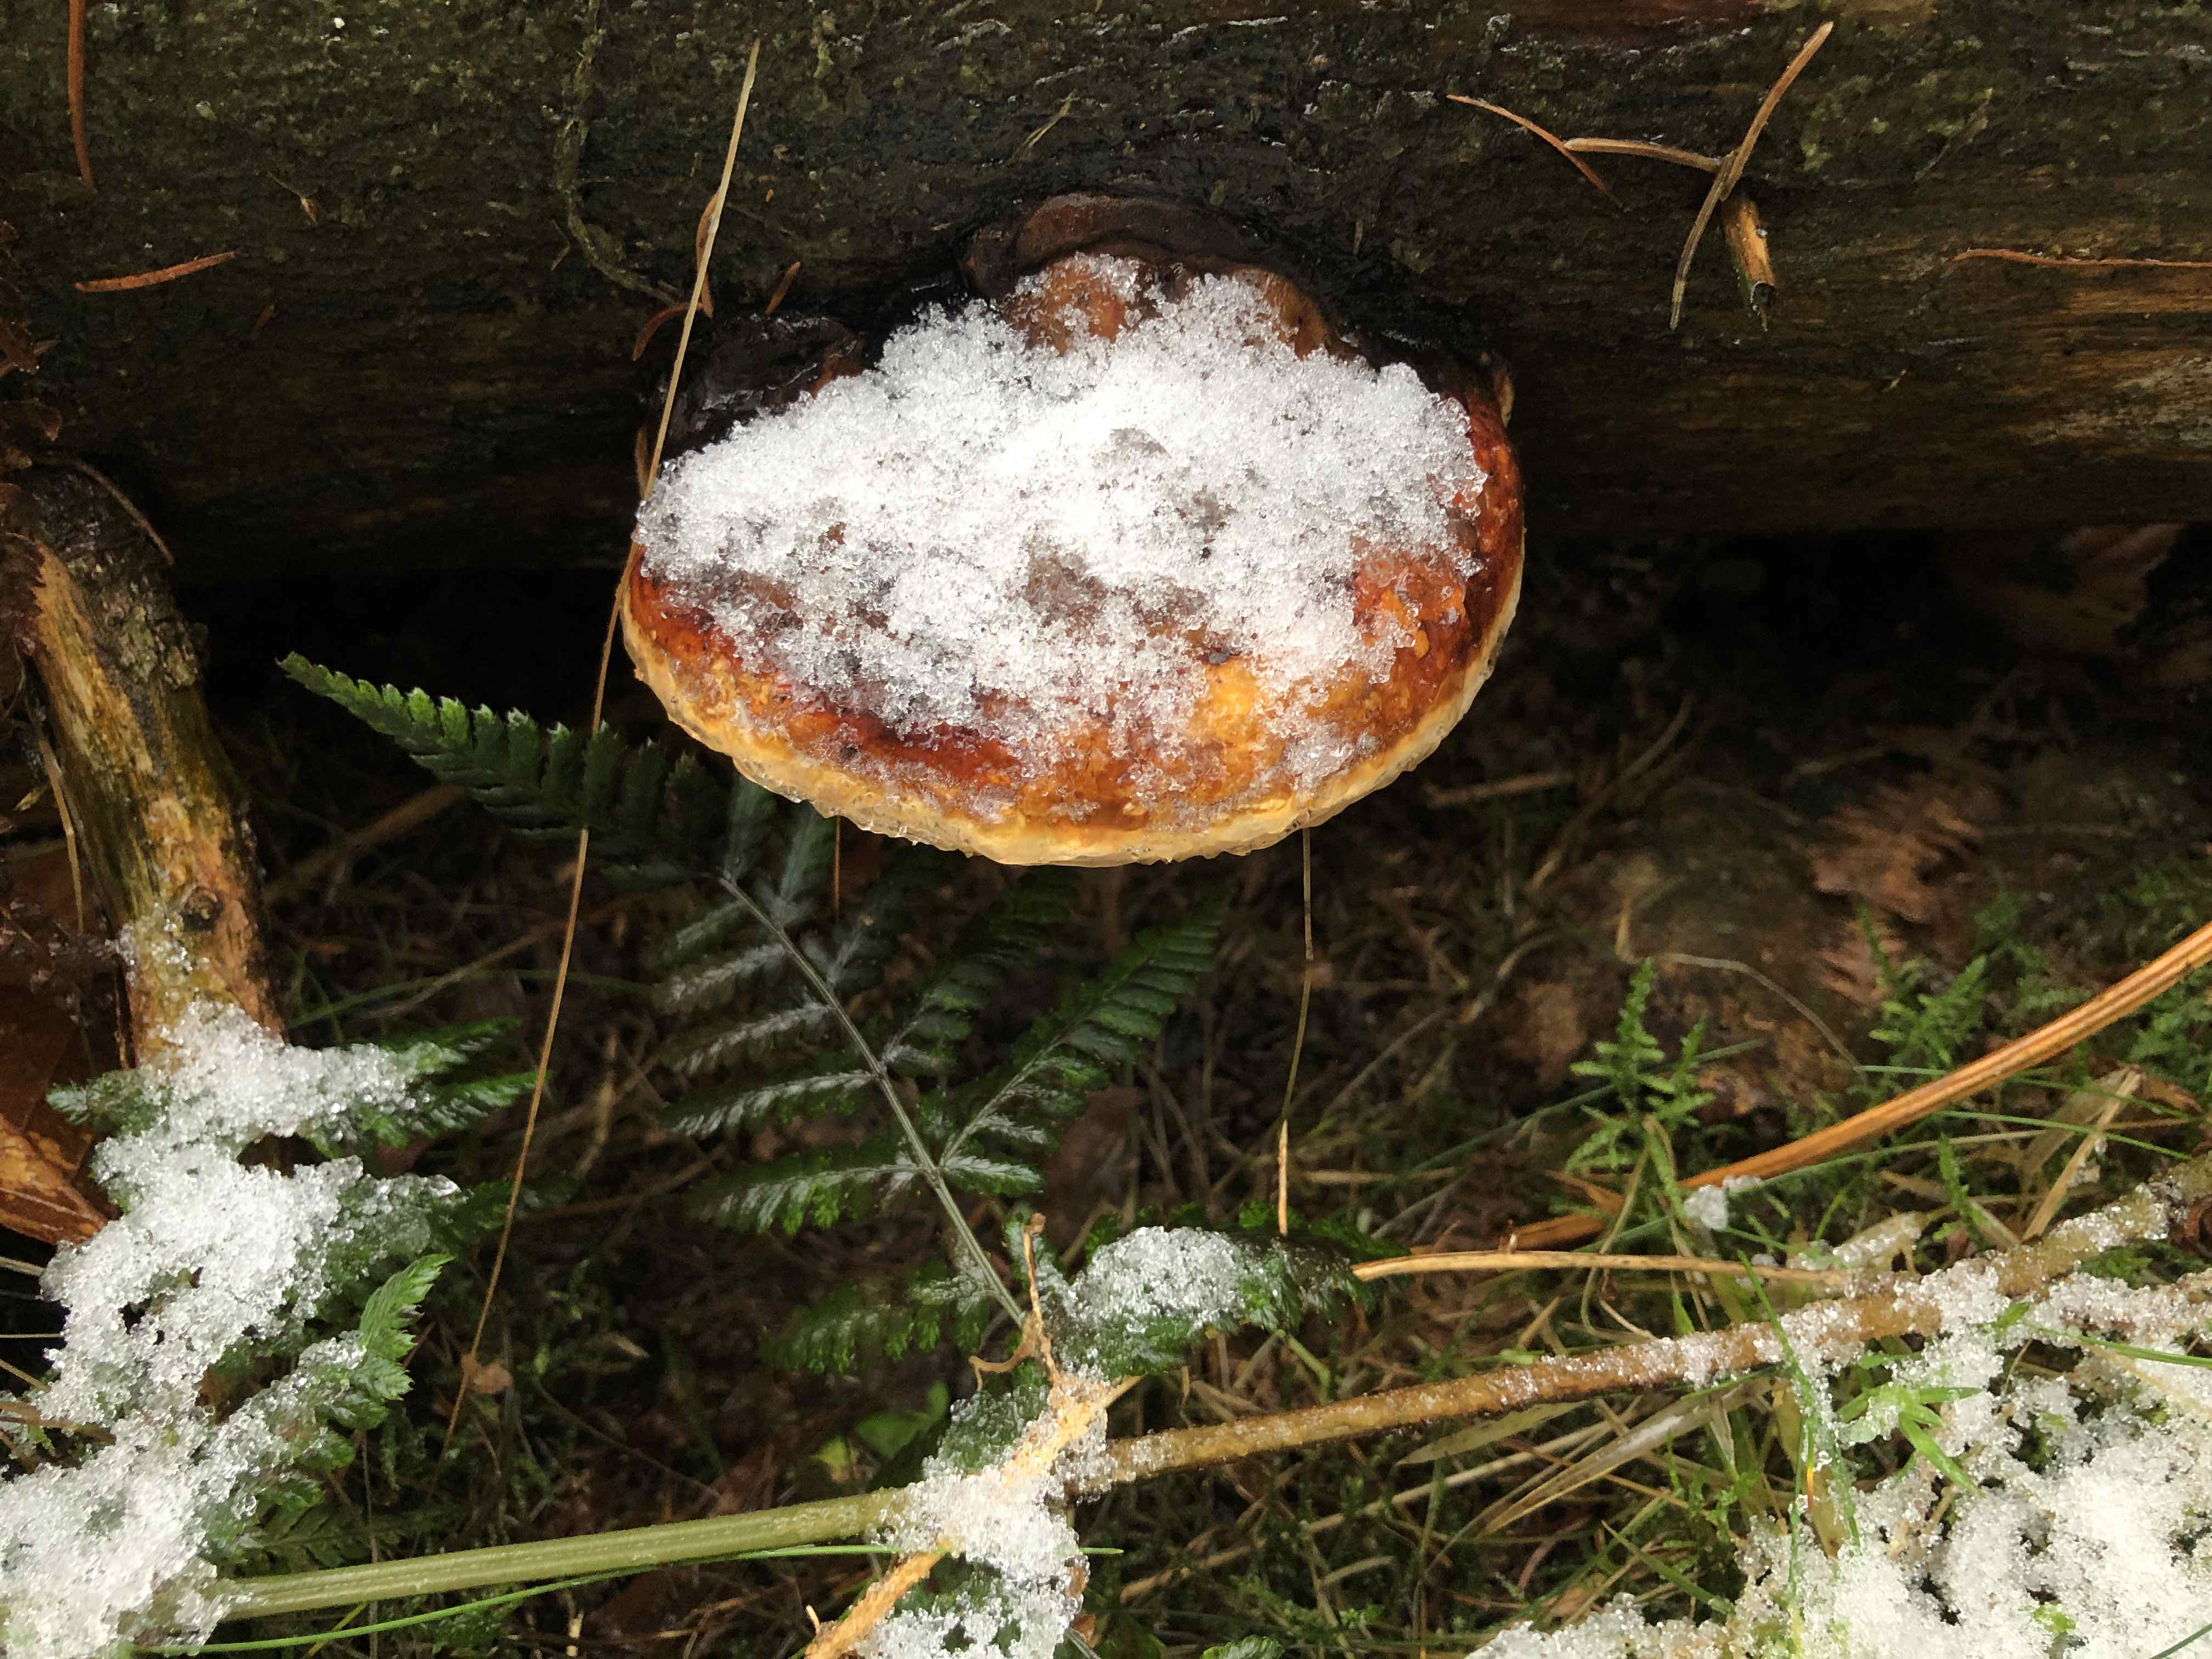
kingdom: Fungi
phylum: Basidiomycota
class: Agaricomycetes
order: Polyporales
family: Fomitopsidaceae
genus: Fomitopsis
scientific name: Fomitopsis pinicola
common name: randbæltet hovporesvamp
